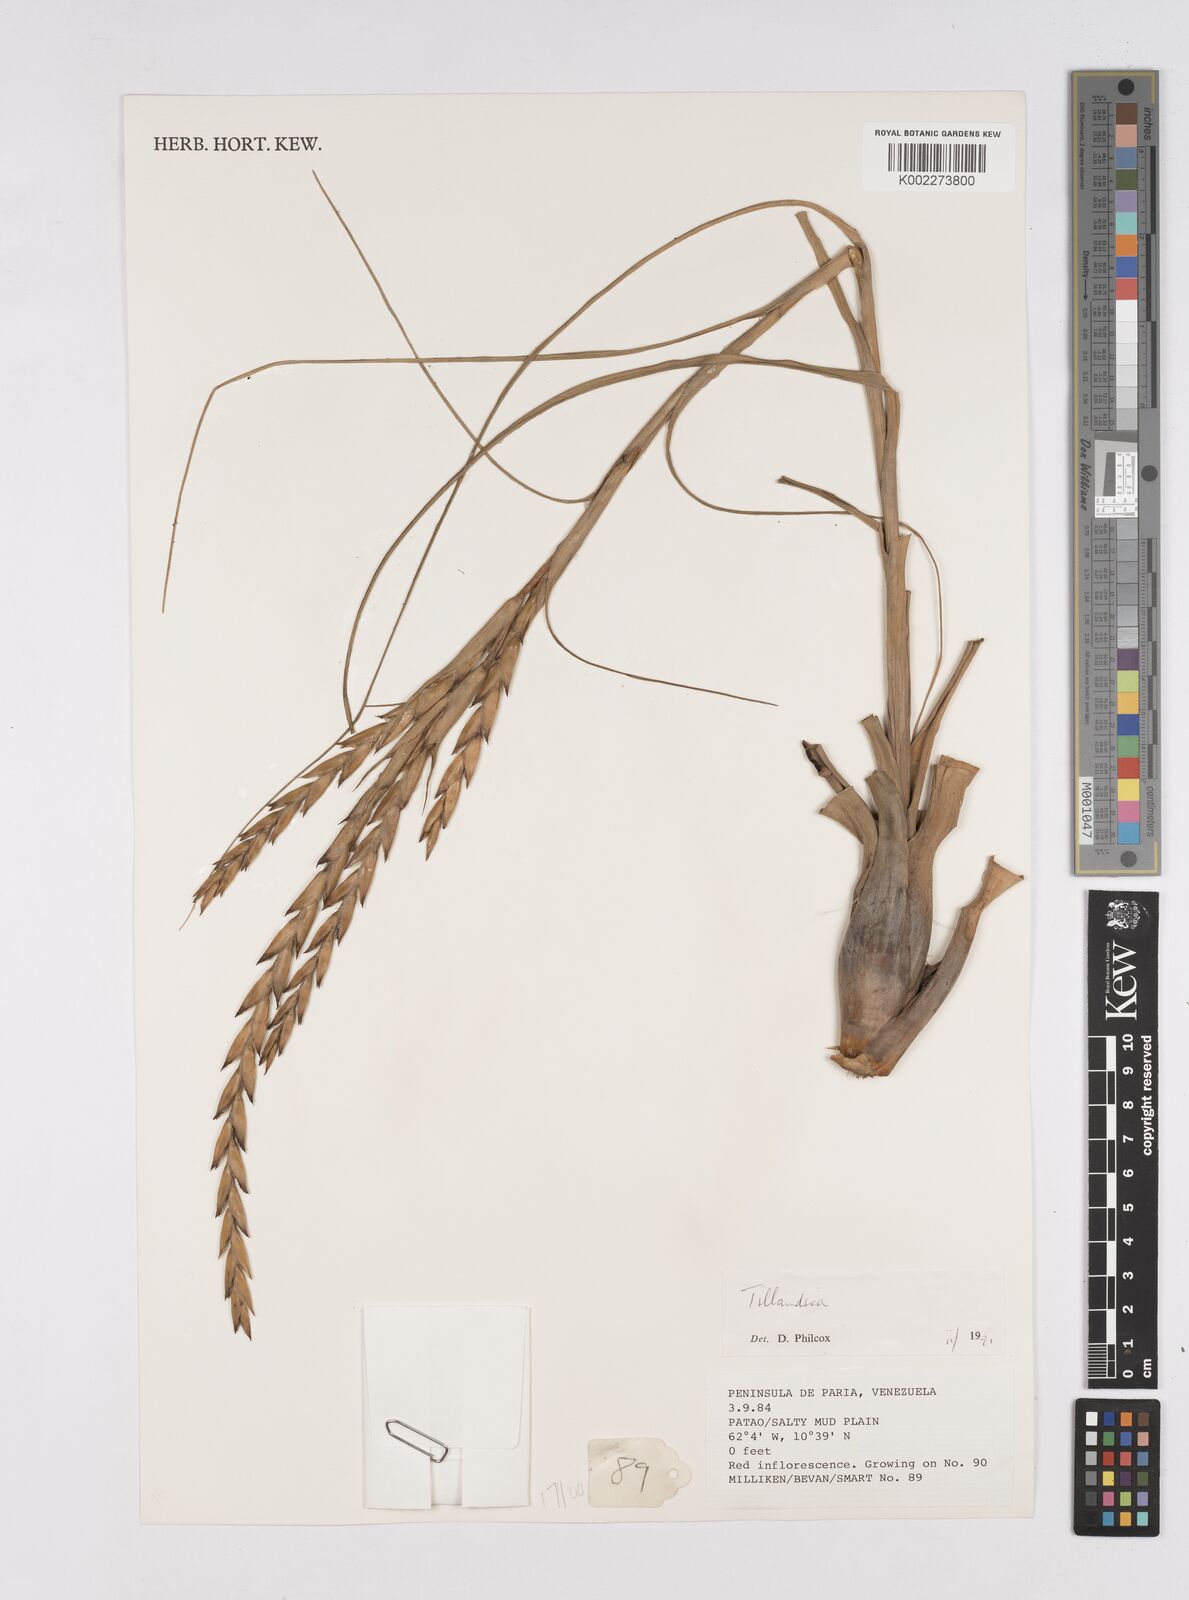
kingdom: Plantae
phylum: Tracheophyta
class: Liliopsida
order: Poales
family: Bromeliaceae
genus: Tillandsia
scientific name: Tillandsia
